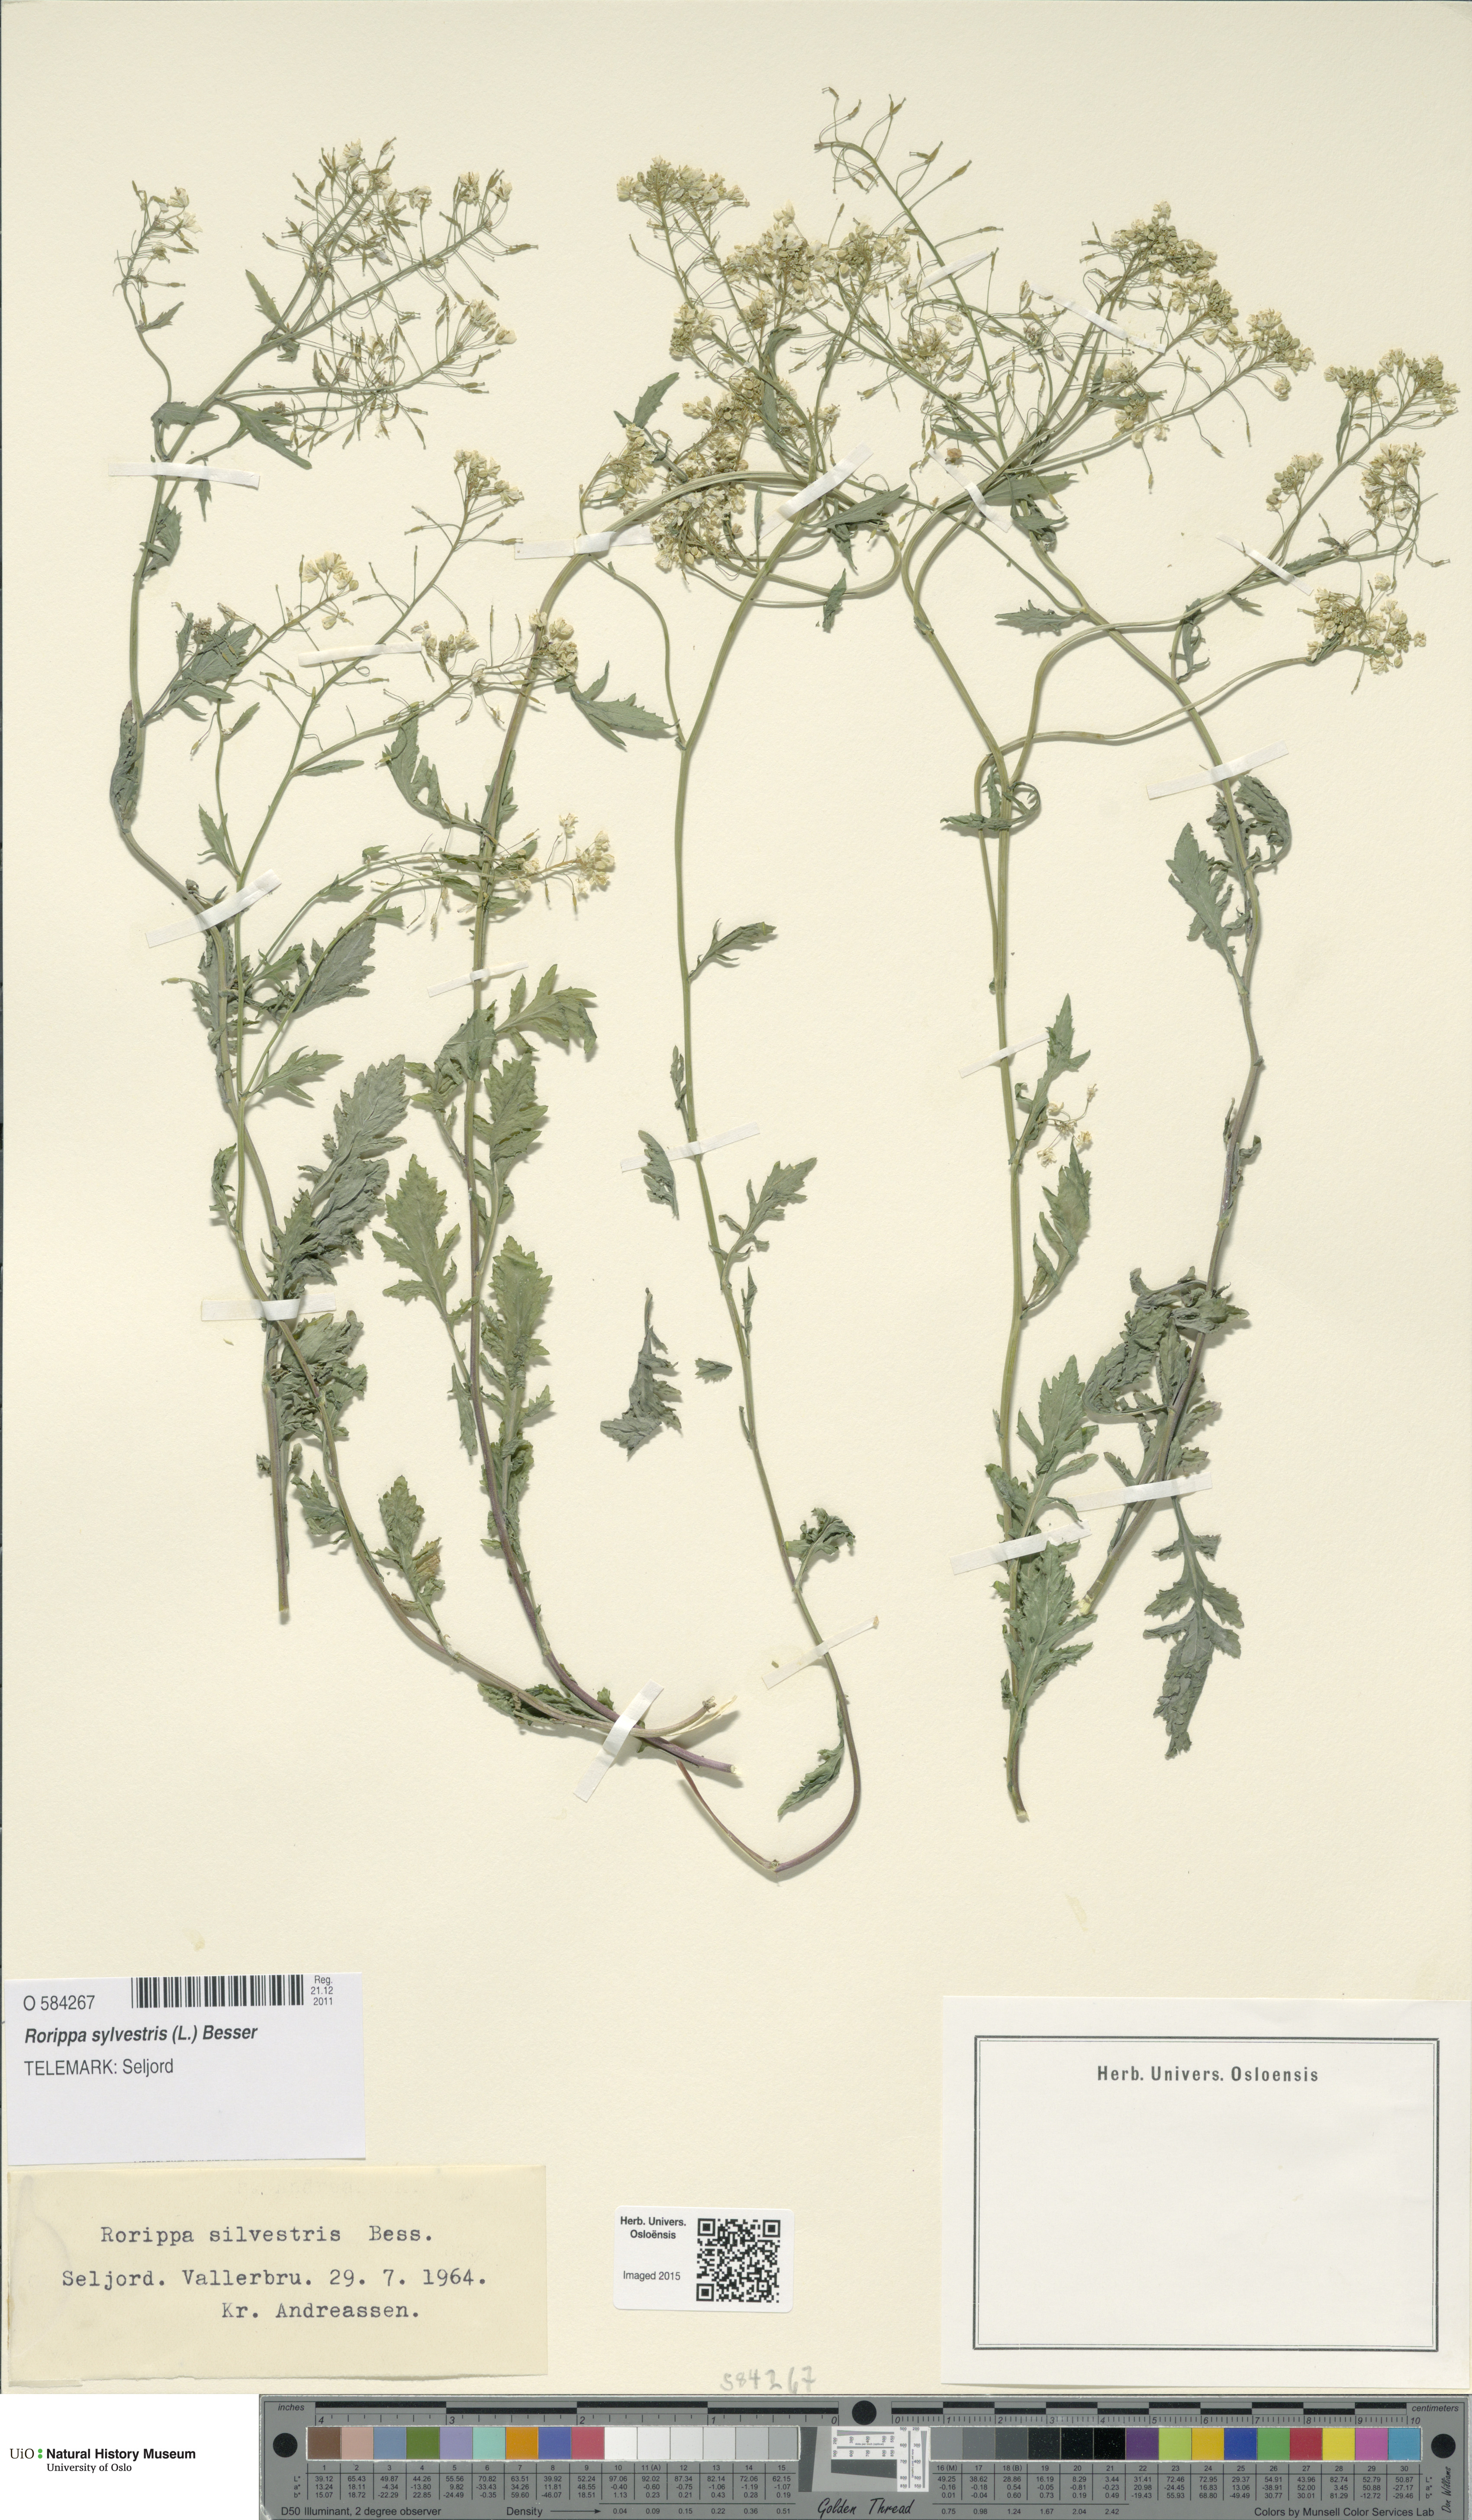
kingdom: Plantae
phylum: Tracheophyta
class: Magnoliopsida
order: Brassicales
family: Brassicaceae
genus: Rorippa
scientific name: Rorippa sylvestris
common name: Creeping yellowcress
